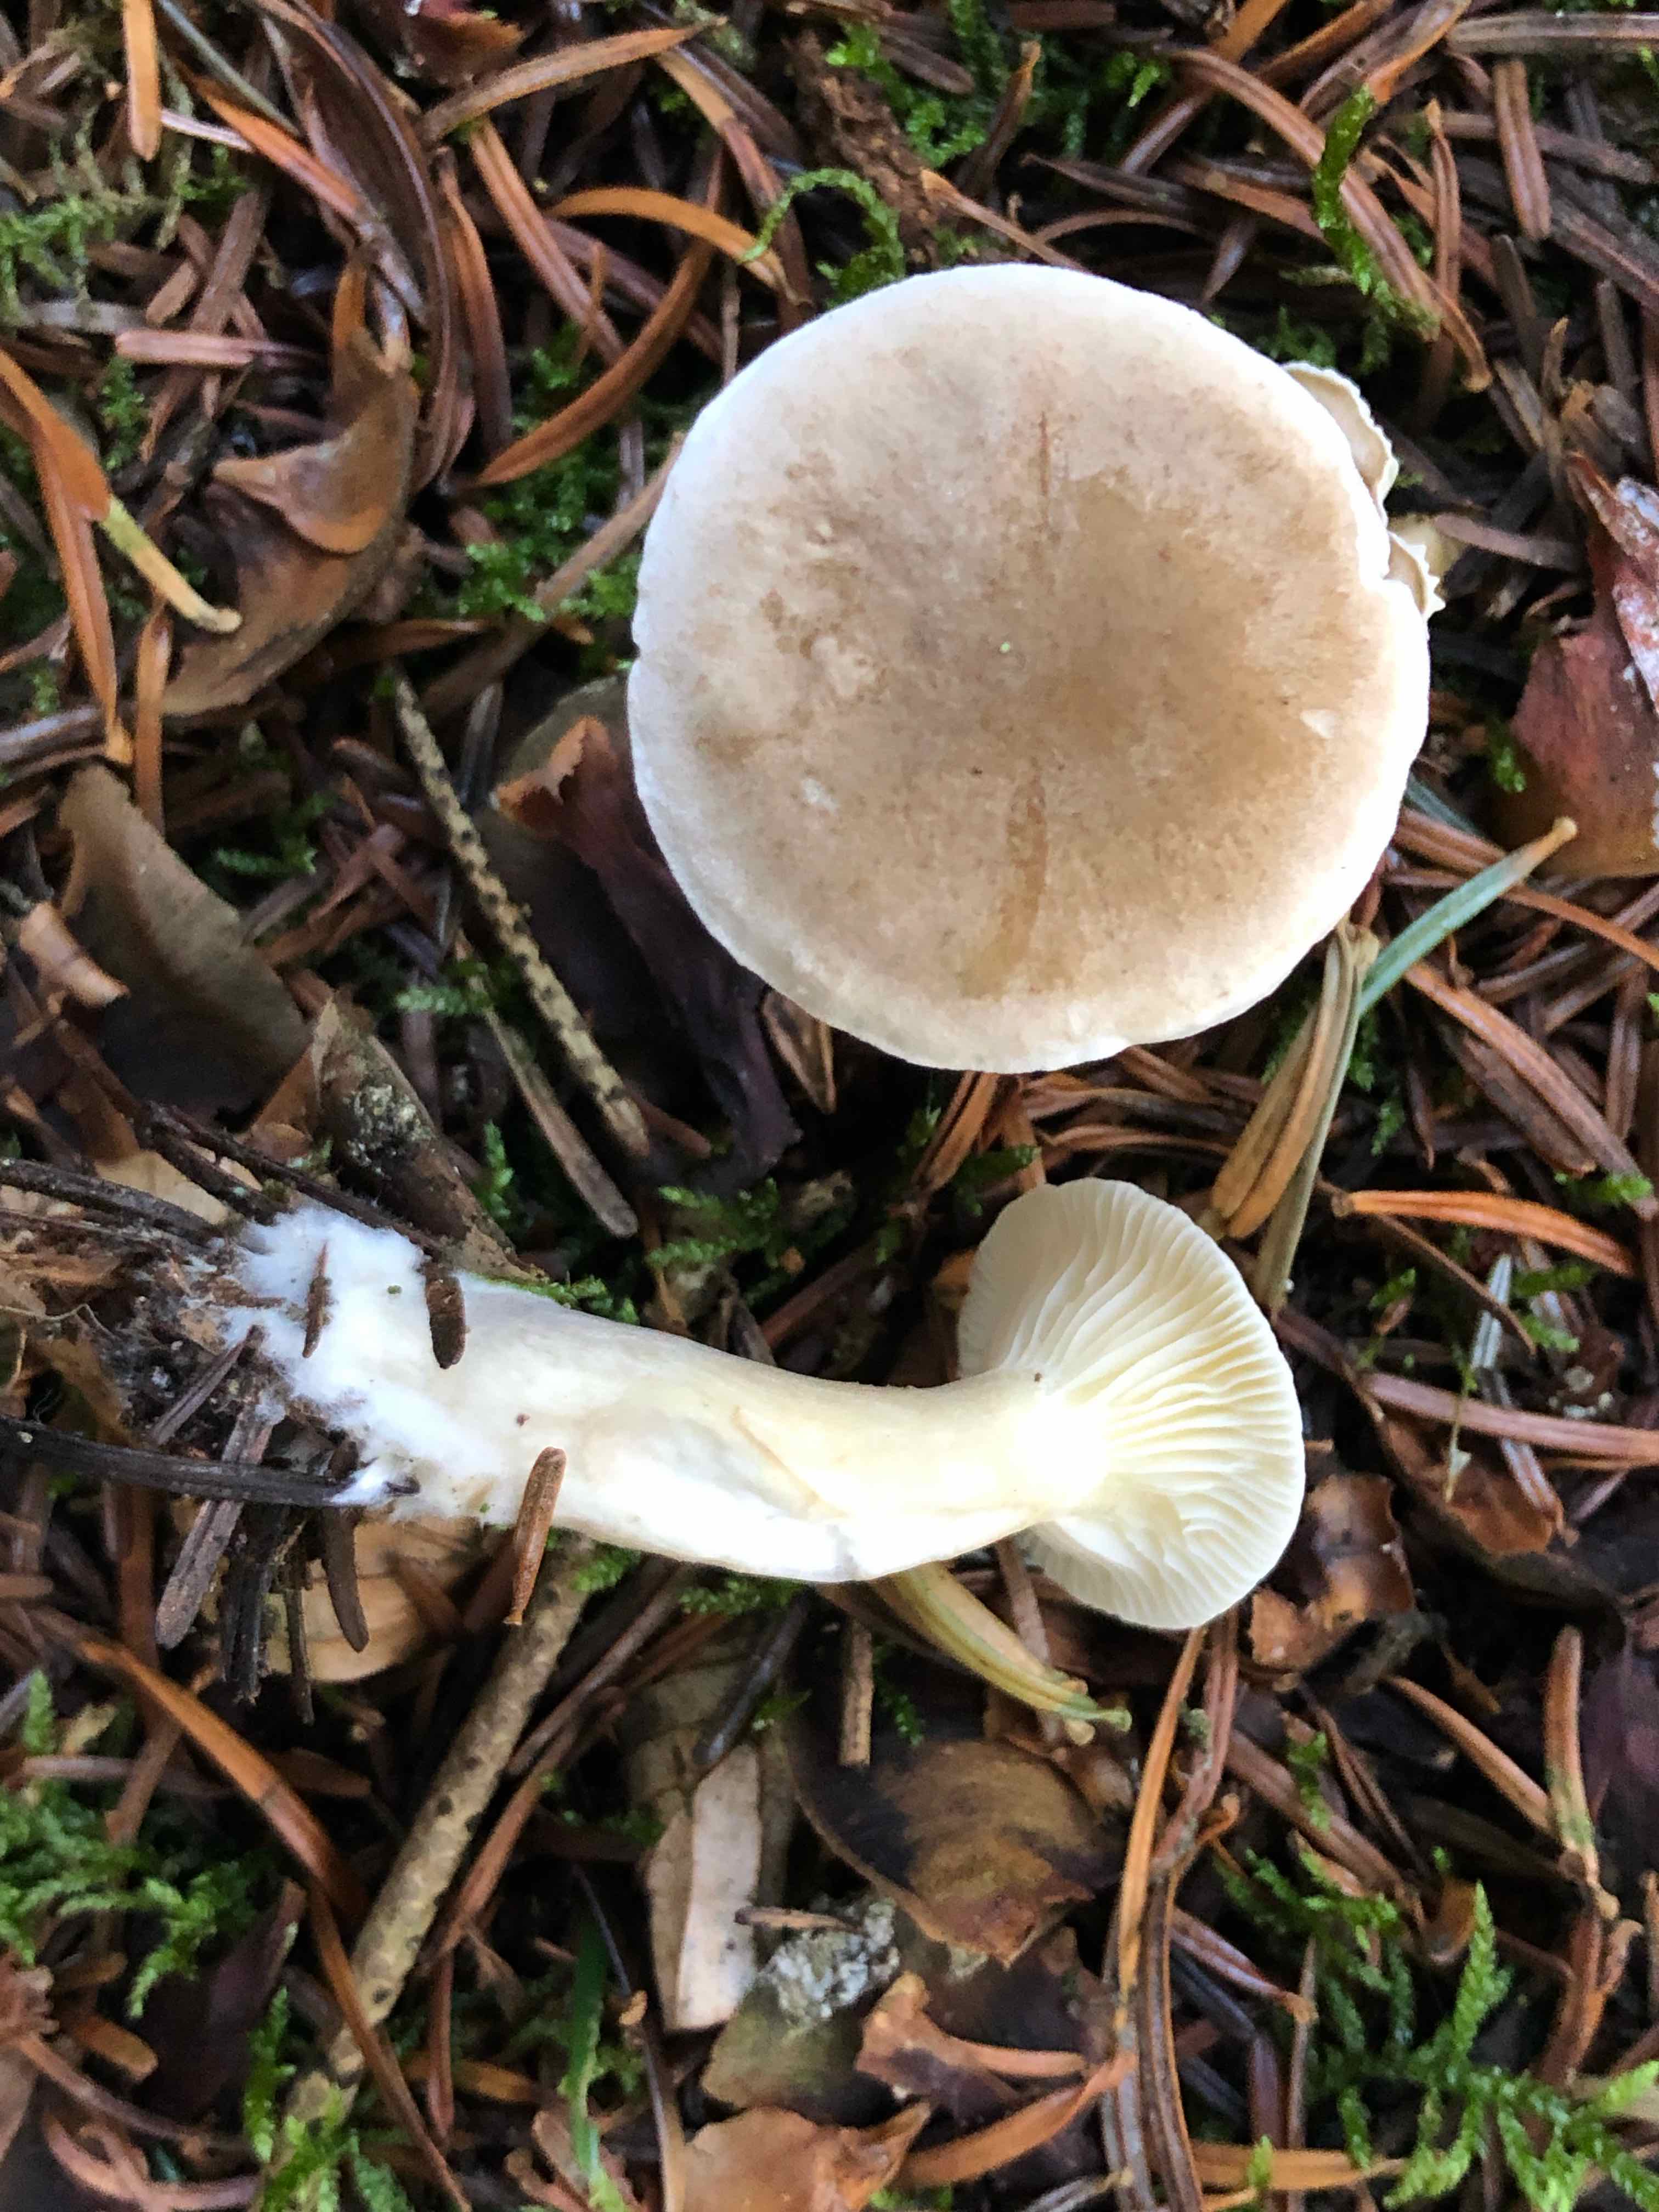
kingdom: Fungi
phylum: Basidiomycota
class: Agaricomycetes
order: Agaricales
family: Hygrophoraceae
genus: Ampulloclitocybe
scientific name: Ampulloclitocybe clavipes
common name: køllefod
